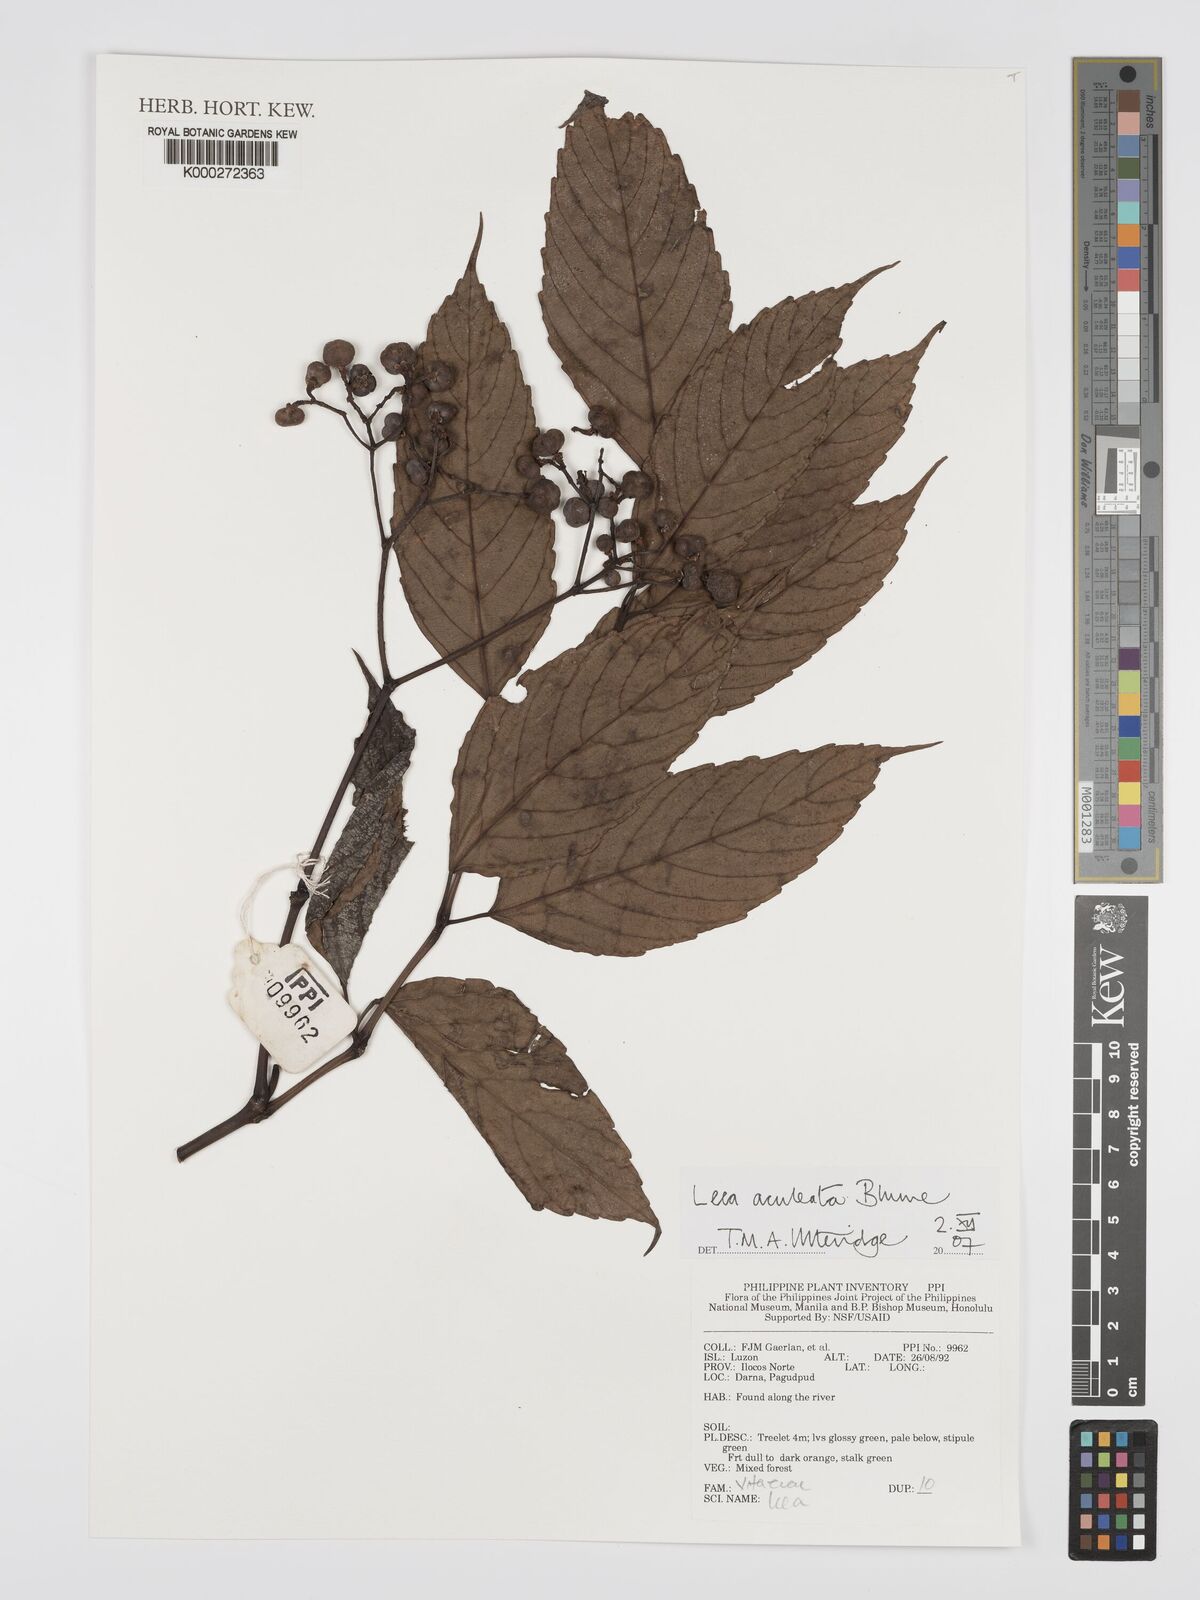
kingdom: Plantae
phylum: Tracheophyta
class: Magnoliopsida
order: Vitales
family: Vitaceae
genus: Leea
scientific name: Leea aculeata
